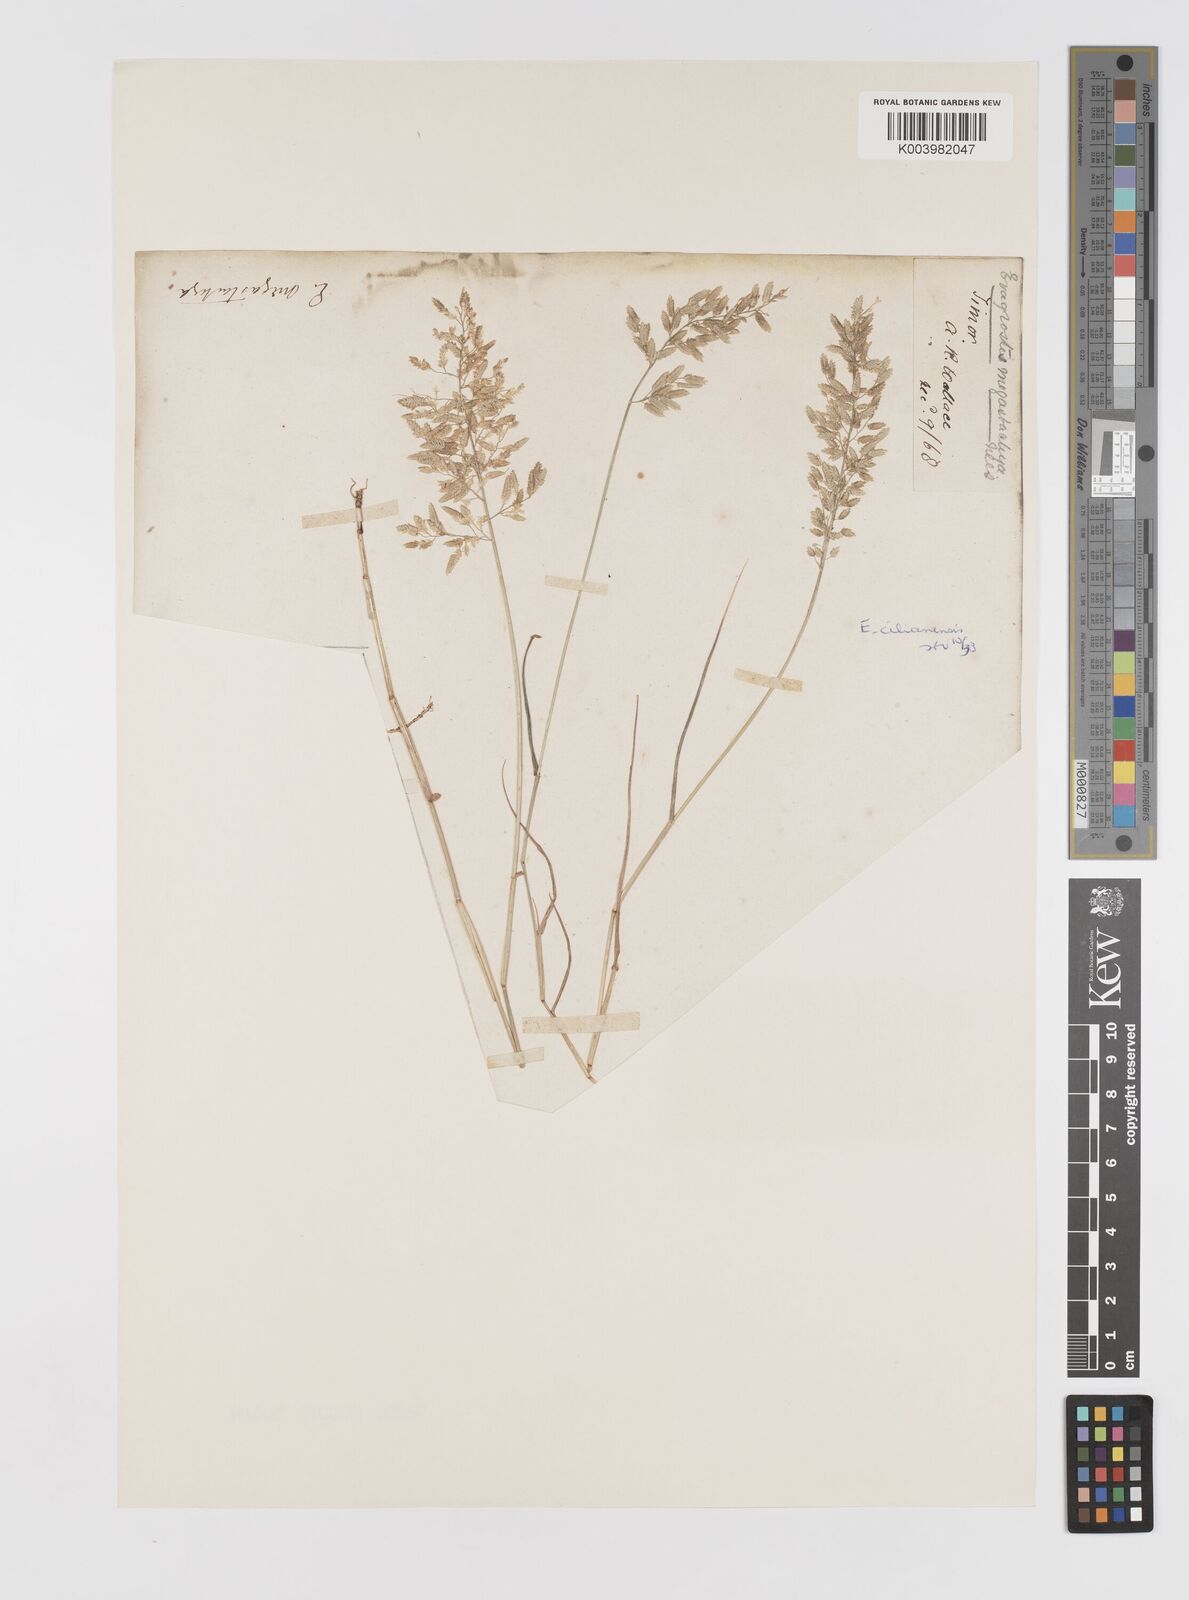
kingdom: Plantae
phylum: Tracheophyta
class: Liliopsida
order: Poales
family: Poaceae
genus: Eragrostis
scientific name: Eragrostis cilianensis
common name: Stinkgrass
